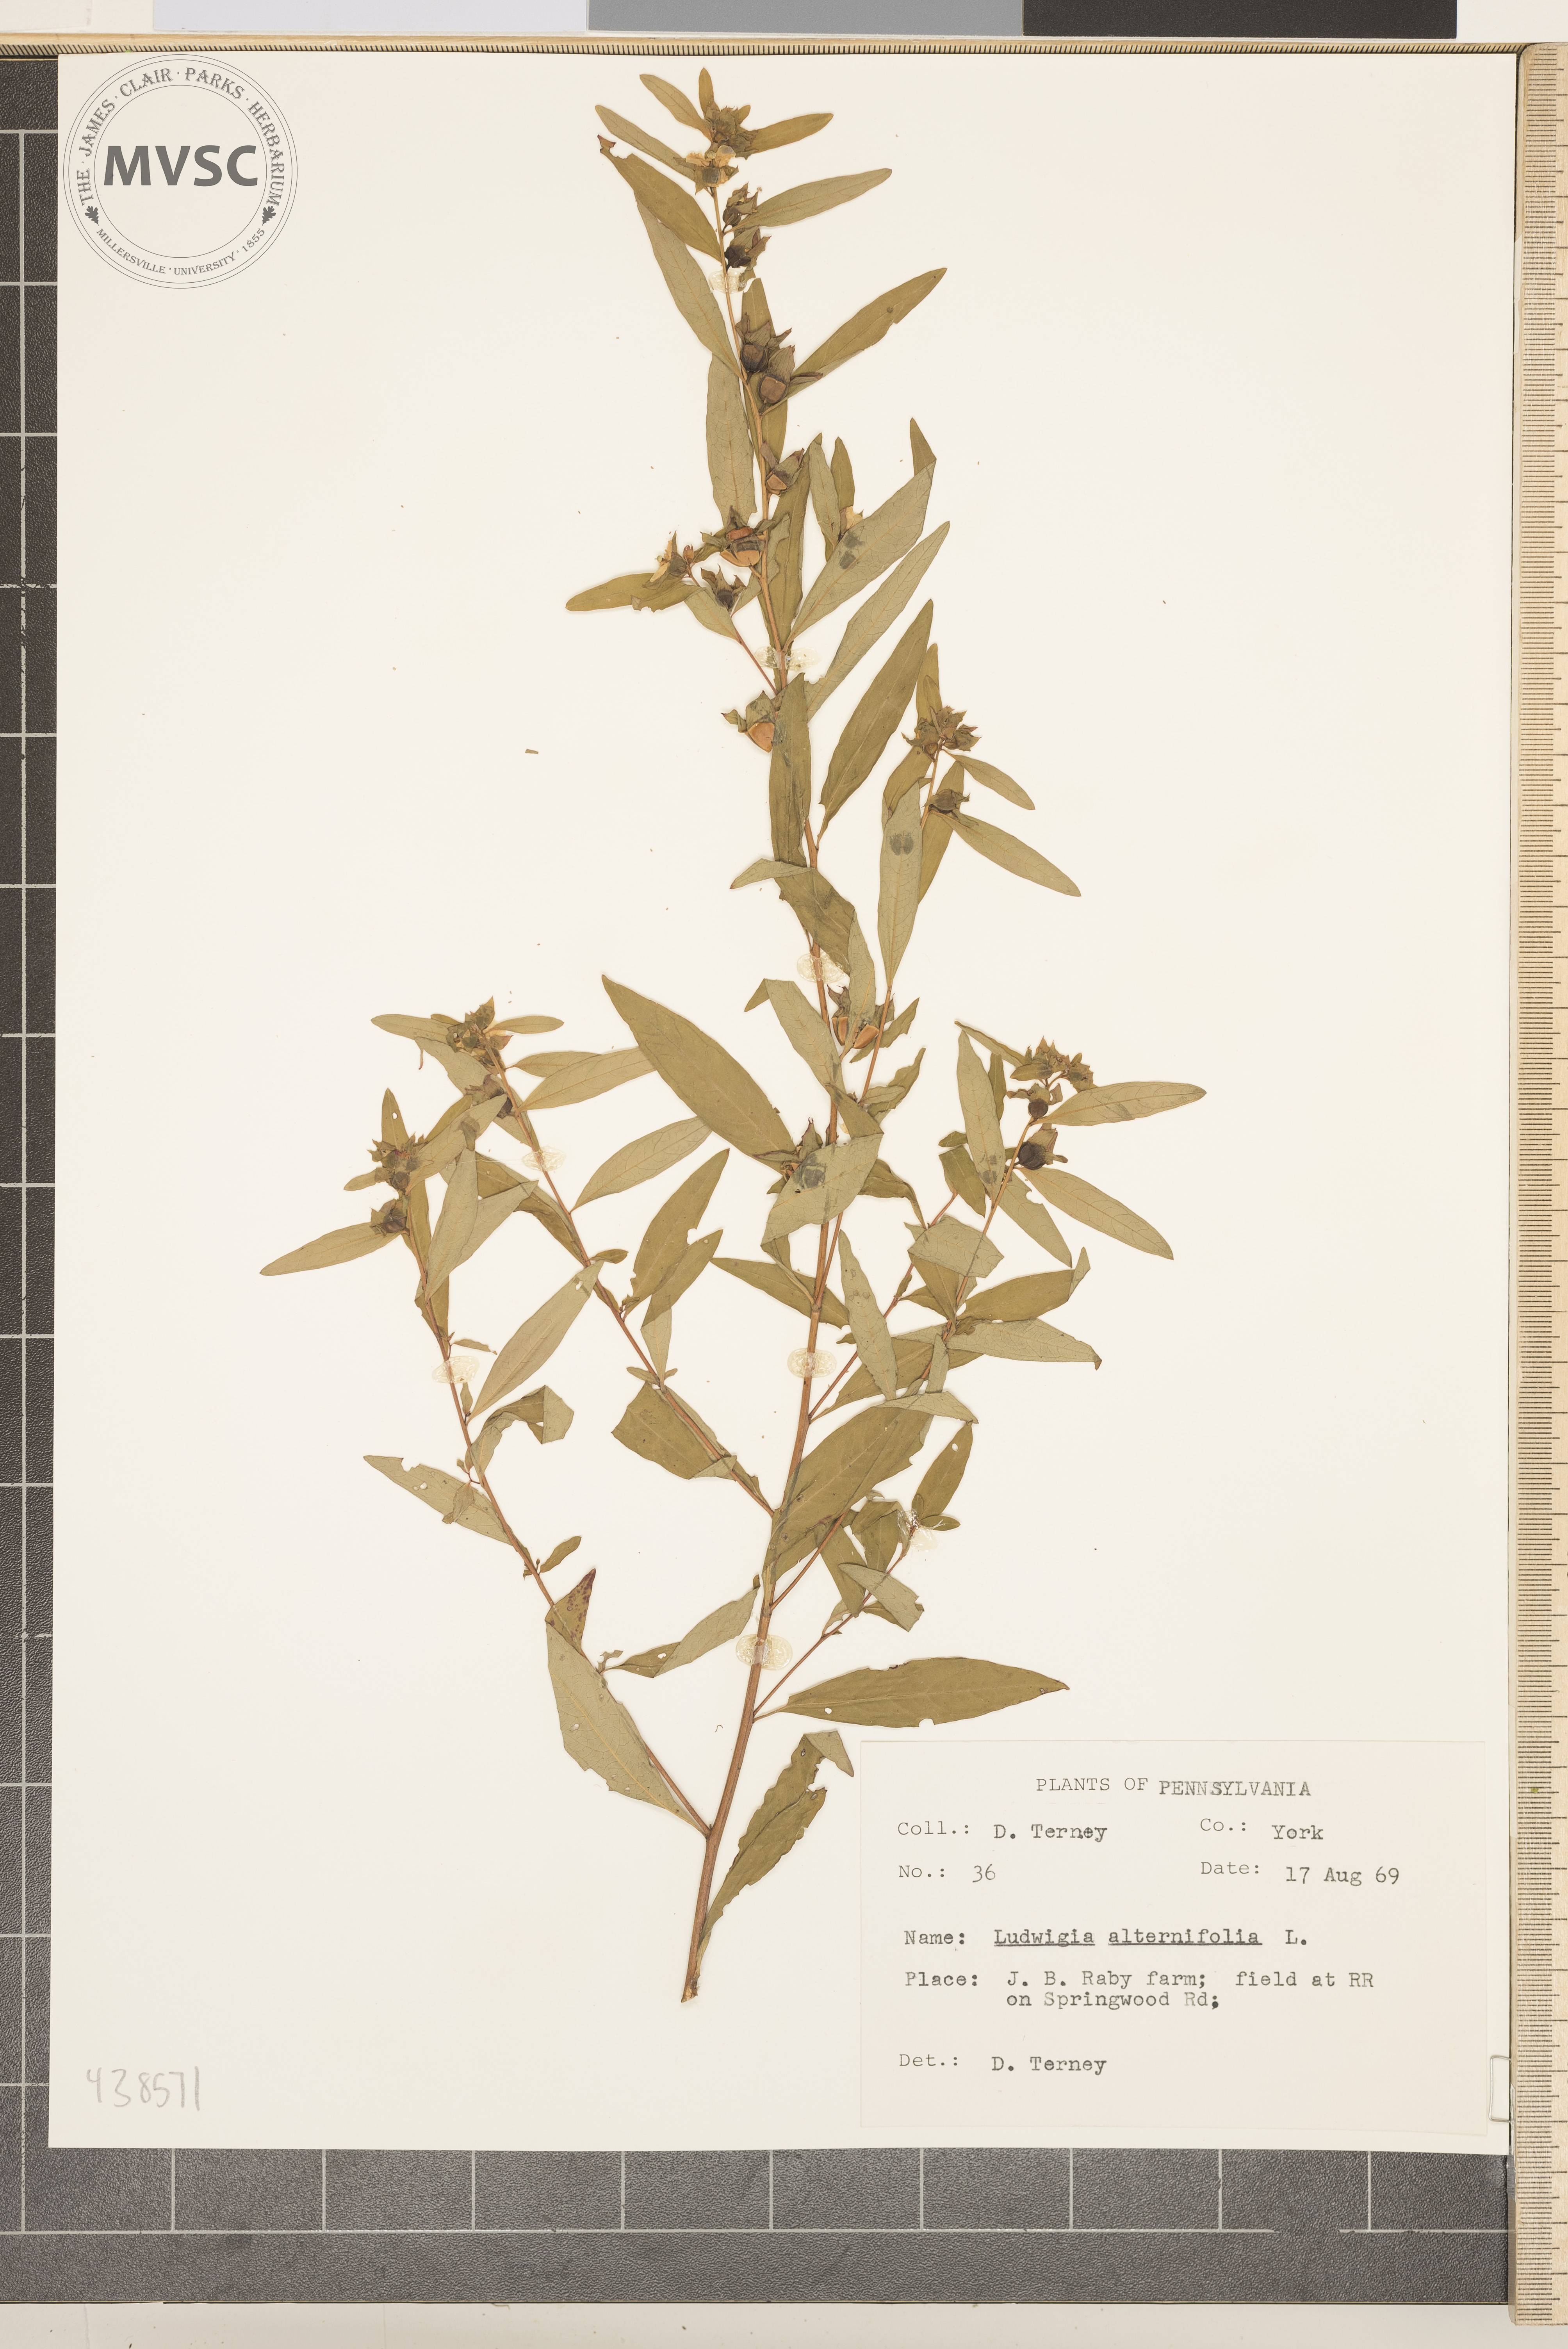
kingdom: Plantae
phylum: Tracheophyta
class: Magnoliopsida
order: Myrtales
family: Onagraceae
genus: Ludwigia
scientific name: Ludwigia alternifolia
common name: Rattlebox
